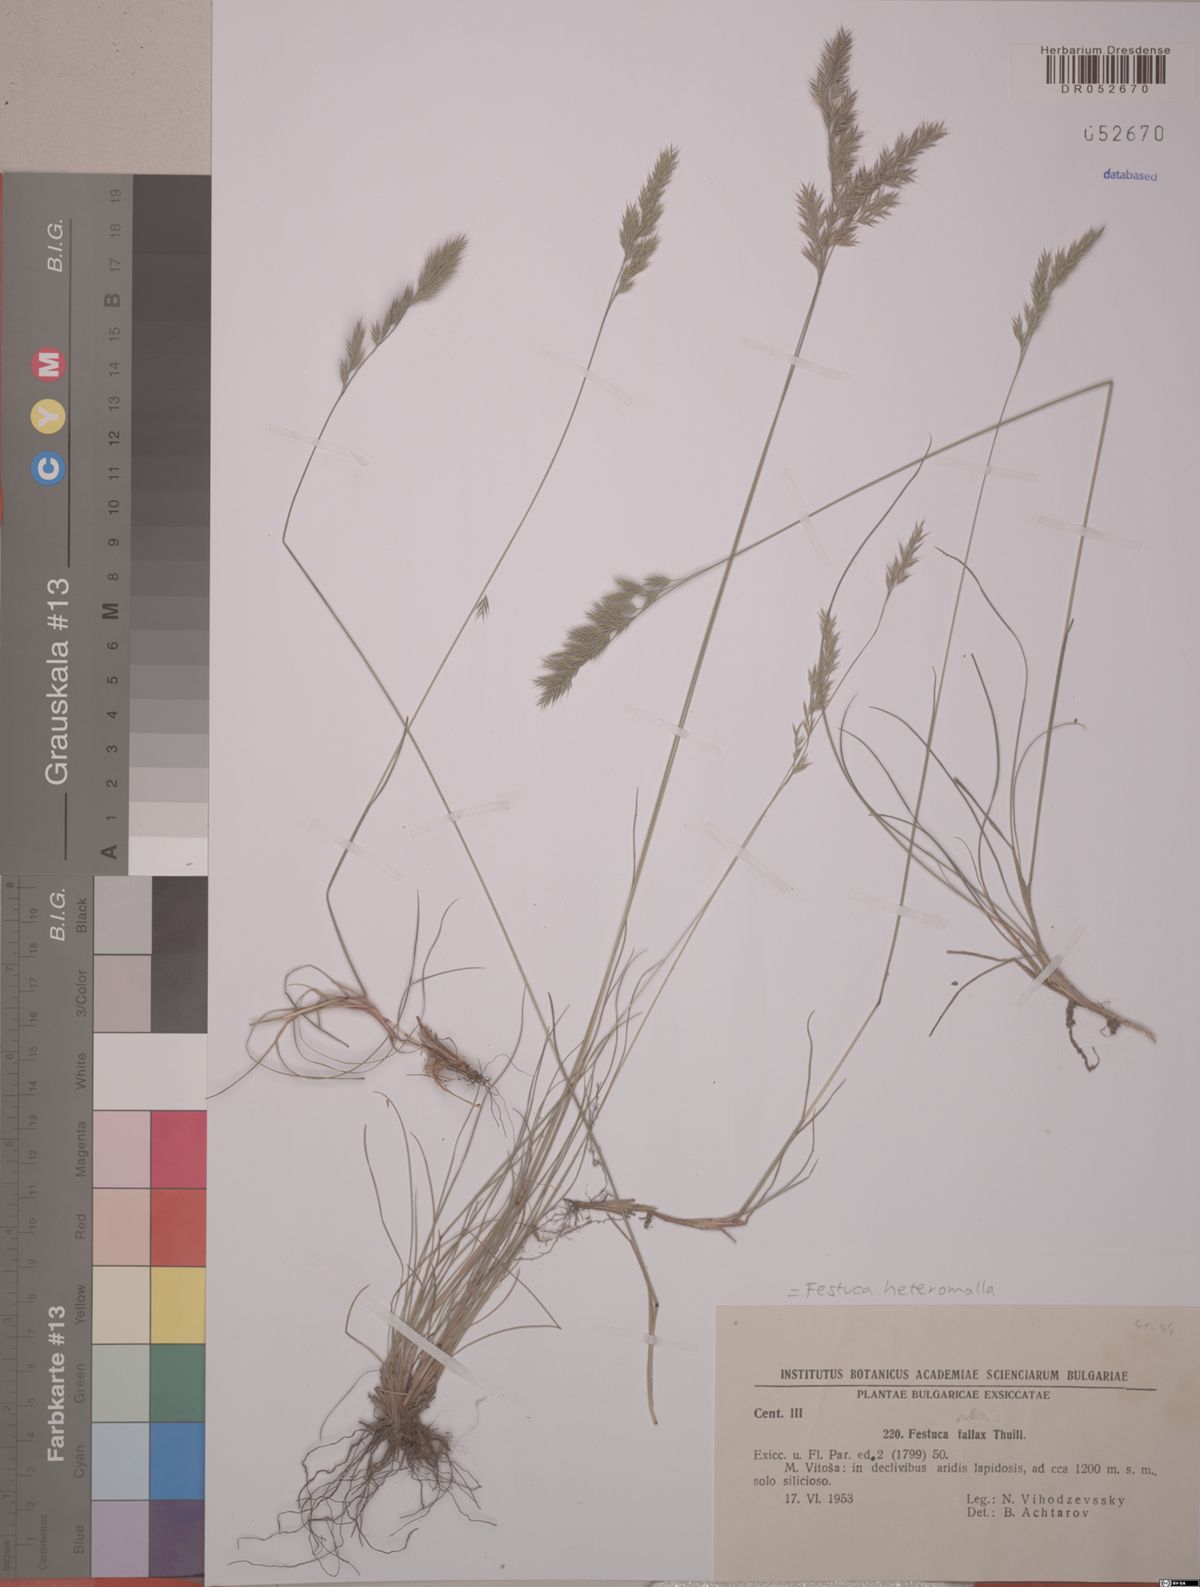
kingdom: Plantae
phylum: Tracheophyta
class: Liliopsida
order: Poales
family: Poaceae
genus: Festuca
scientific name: Festuca heteromalla
